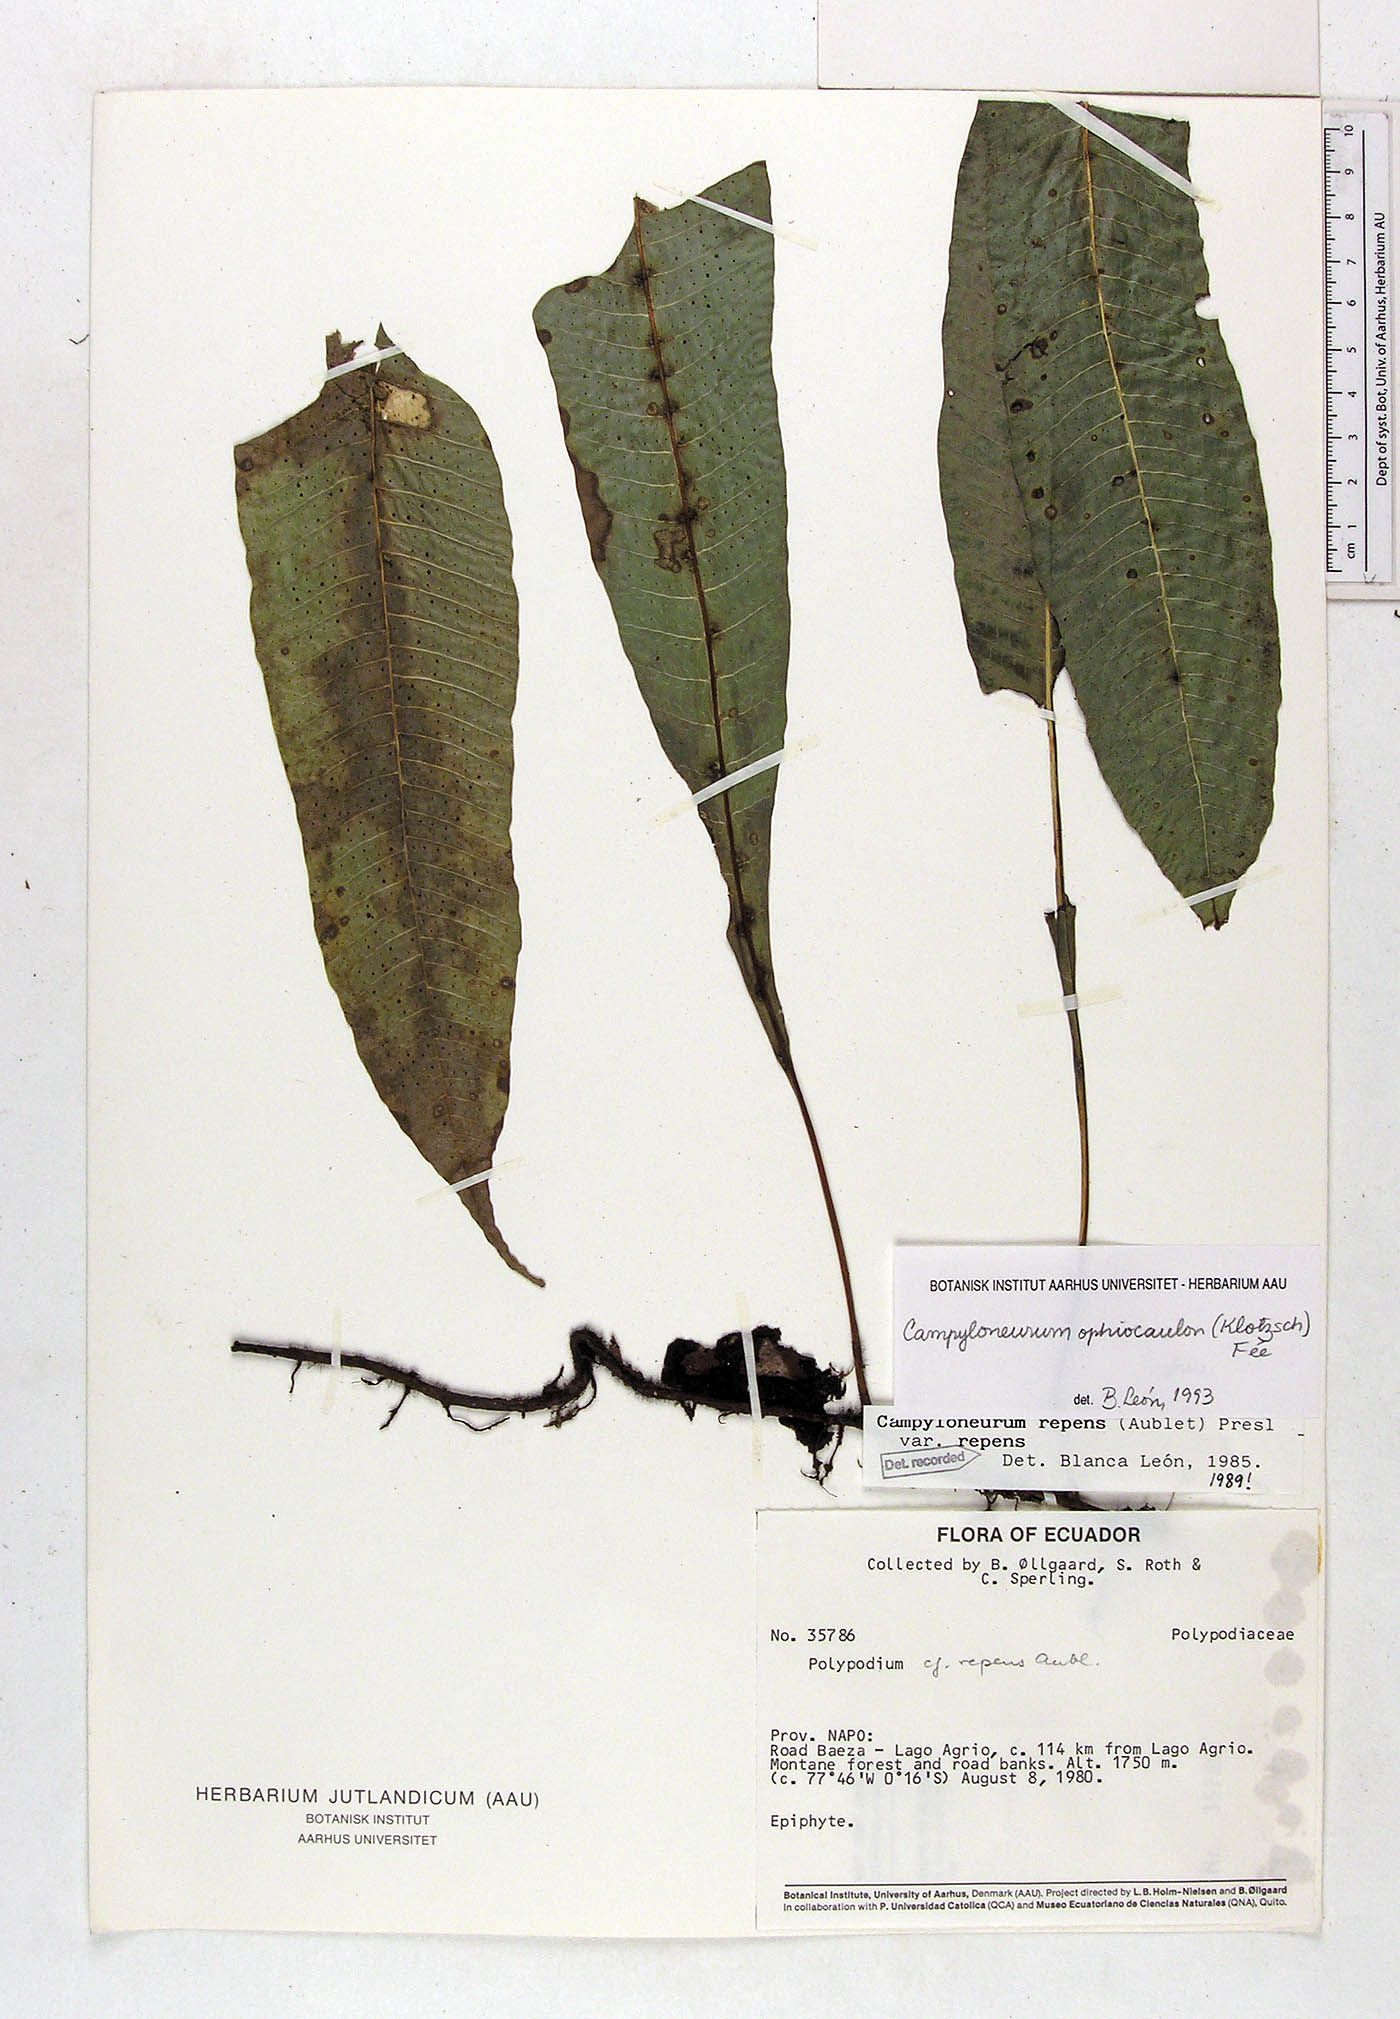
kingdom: Plantae
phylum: Tracheophyta
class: Polypodiopsida
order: Polypodiales
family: Polypodiaceae
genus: Campyloneurum
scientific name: Campyloneurum ophiocaulon
